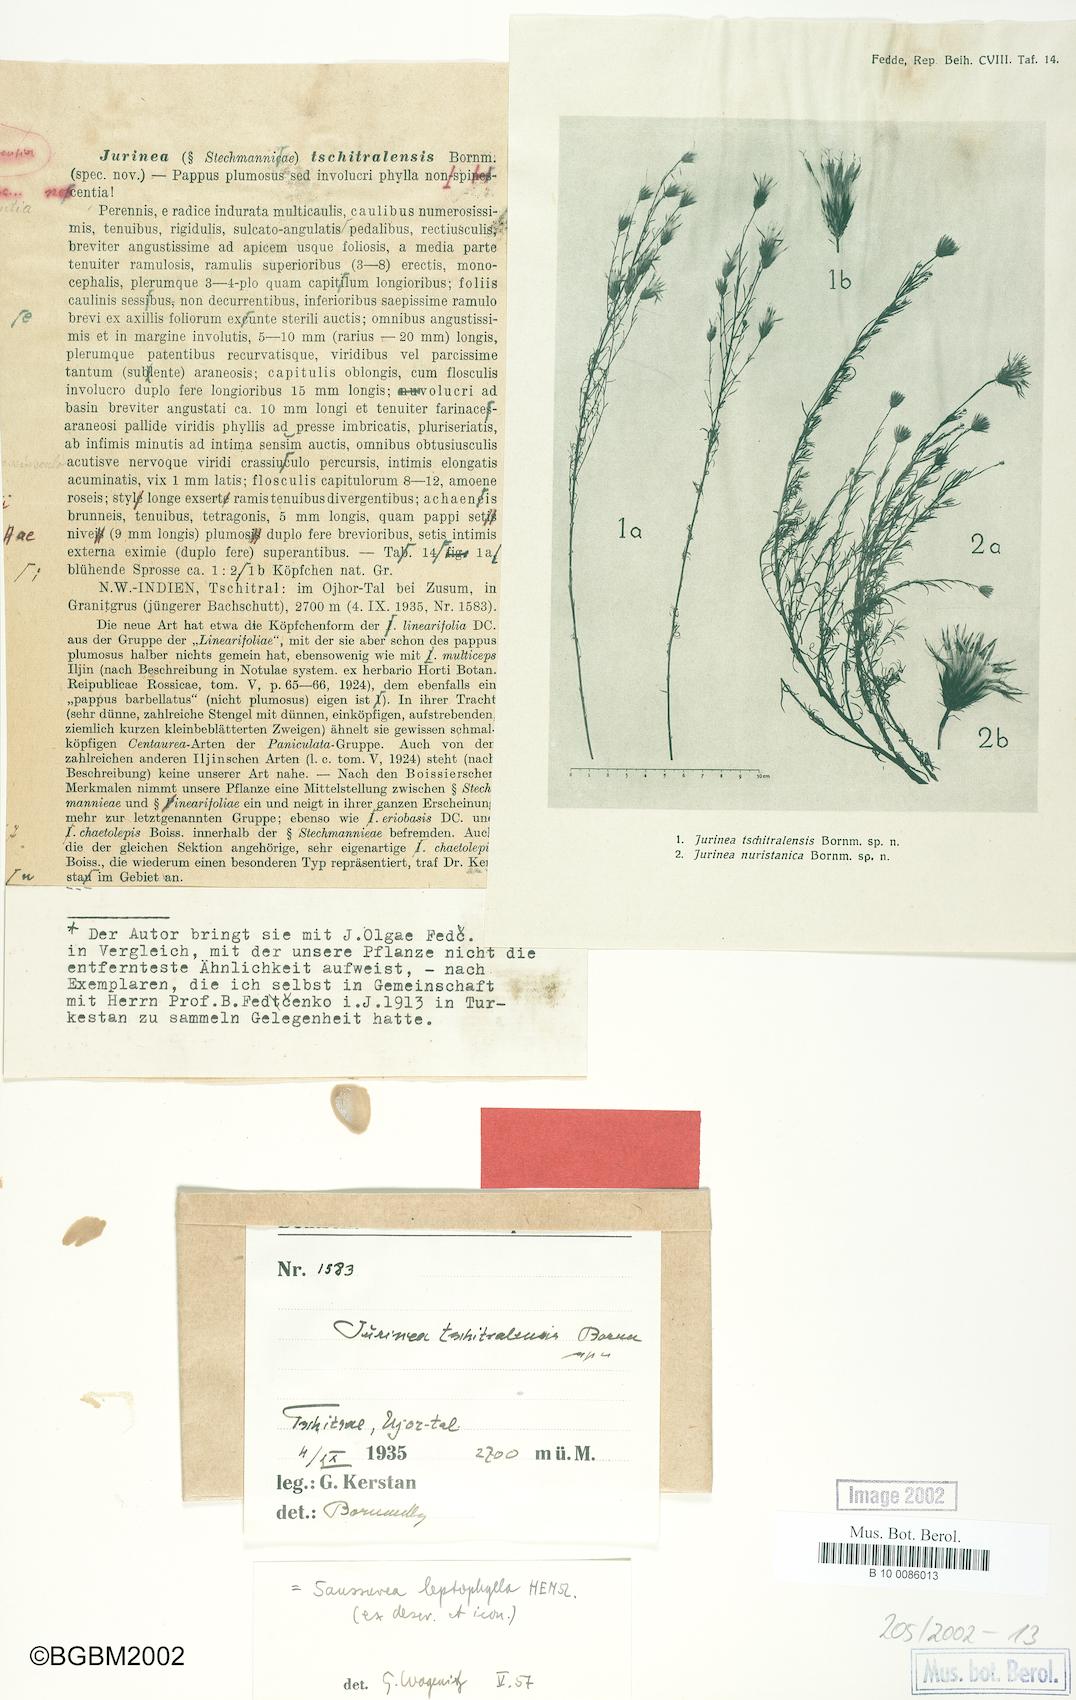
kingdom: Plantae
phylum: Tracheophyta
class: Magnoliopsida
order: Asterales
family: Asteraceae
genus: Jurinea
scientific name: Jurinea leptophylla
